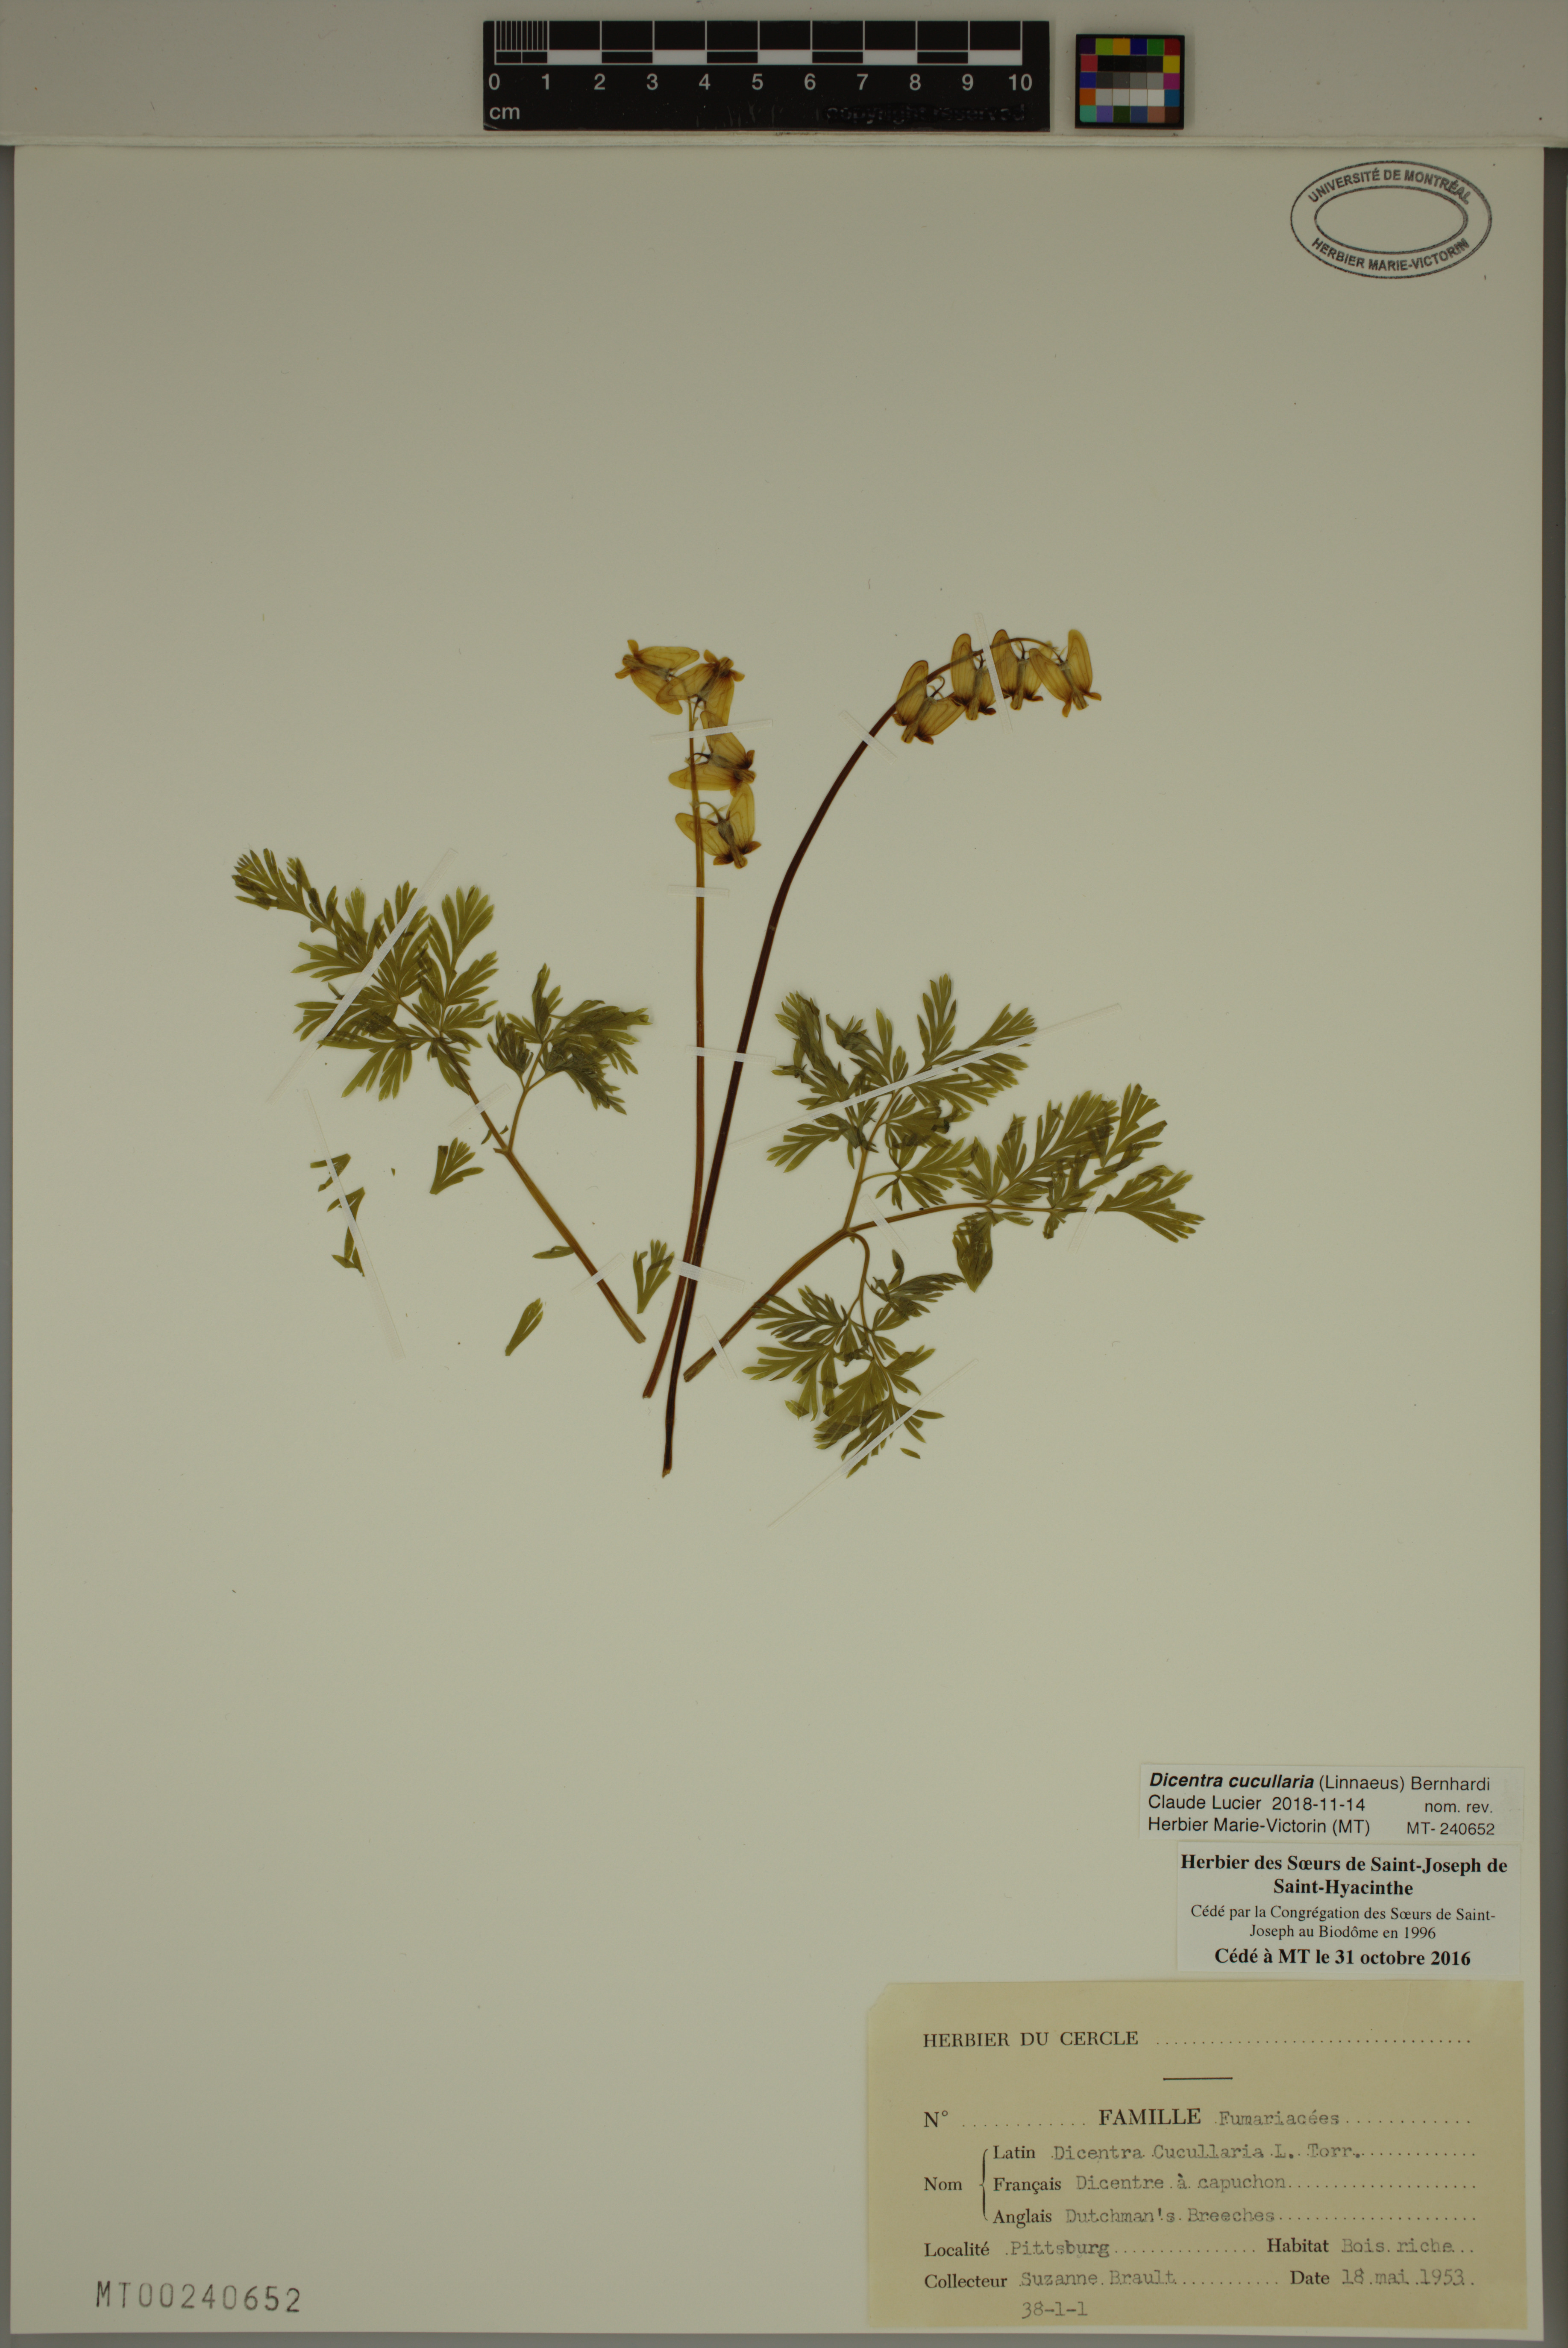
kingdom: Plantae
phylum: Tracheophyta
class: Magnoliopsida
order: Ranunculales
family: Papaveraceae
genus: Dicentra
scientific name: Dicentra cucullaria
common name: Dutchman's breeches
